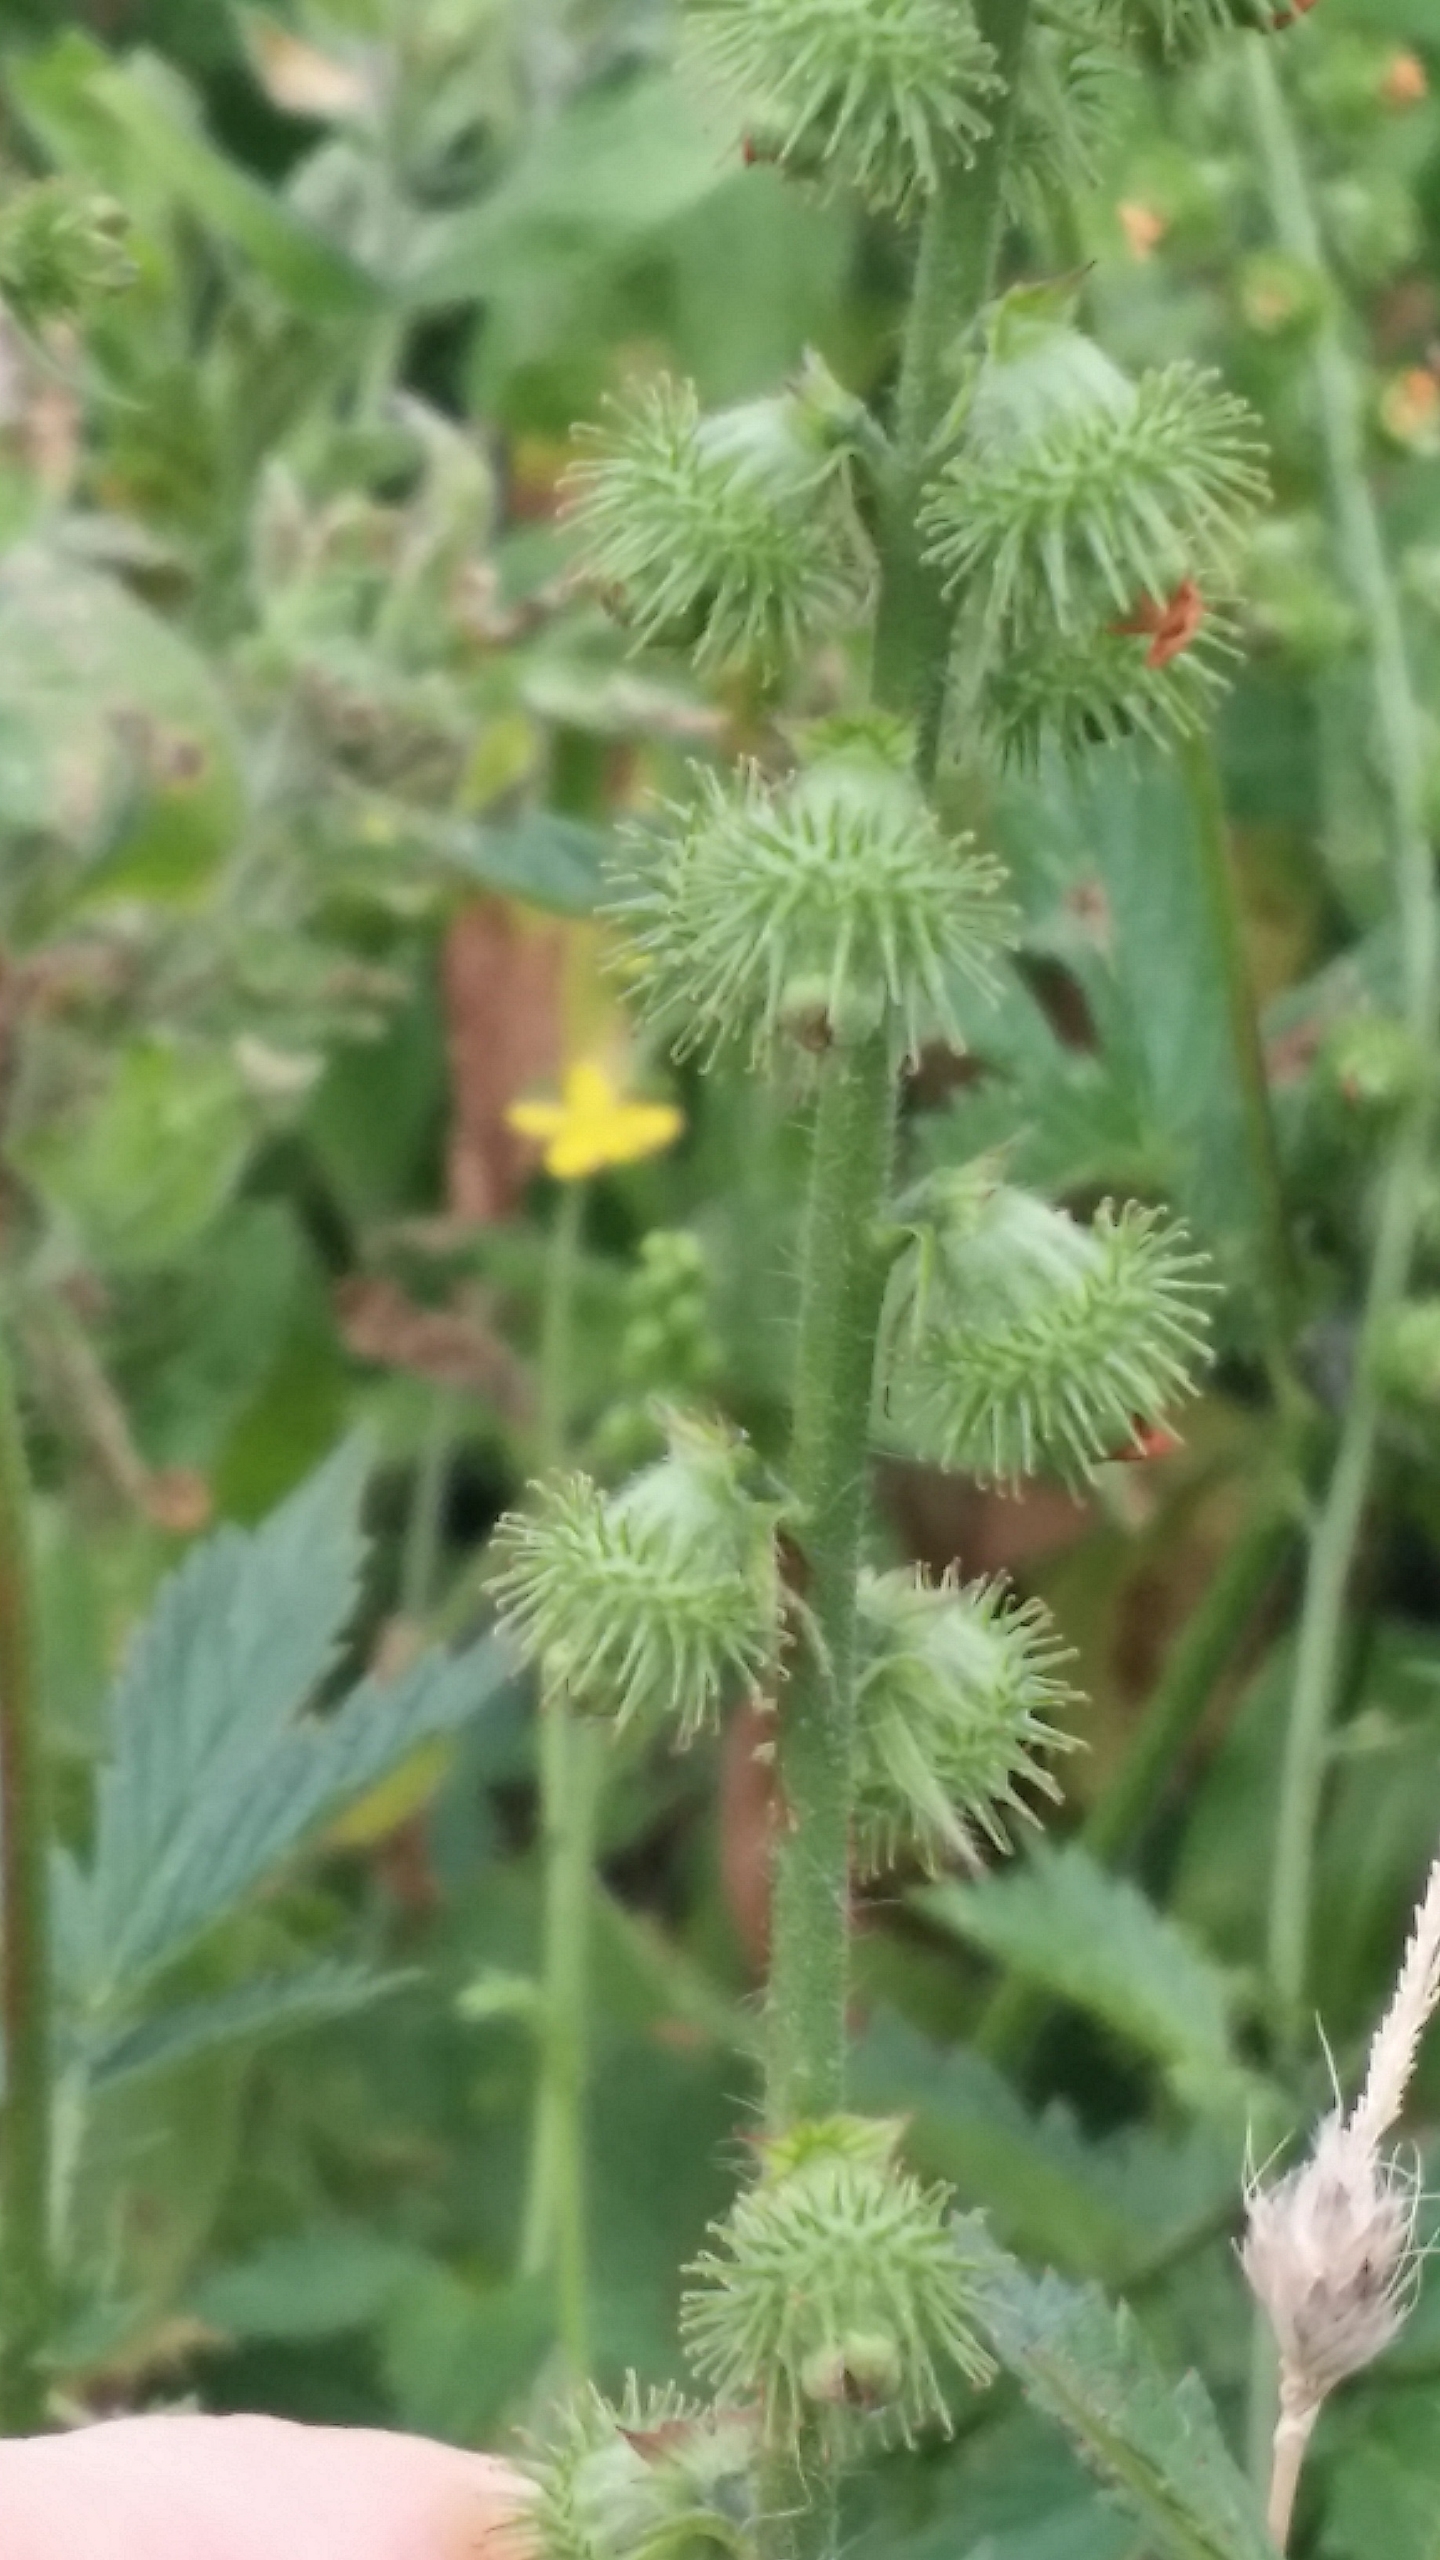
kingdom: Plantae
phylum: Tracheophyta
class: Magnoliopsida
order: Rosales
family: Rosaceae
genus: Agrimonia
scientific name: Agrimonia procera
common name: Vellugtende agermåne
